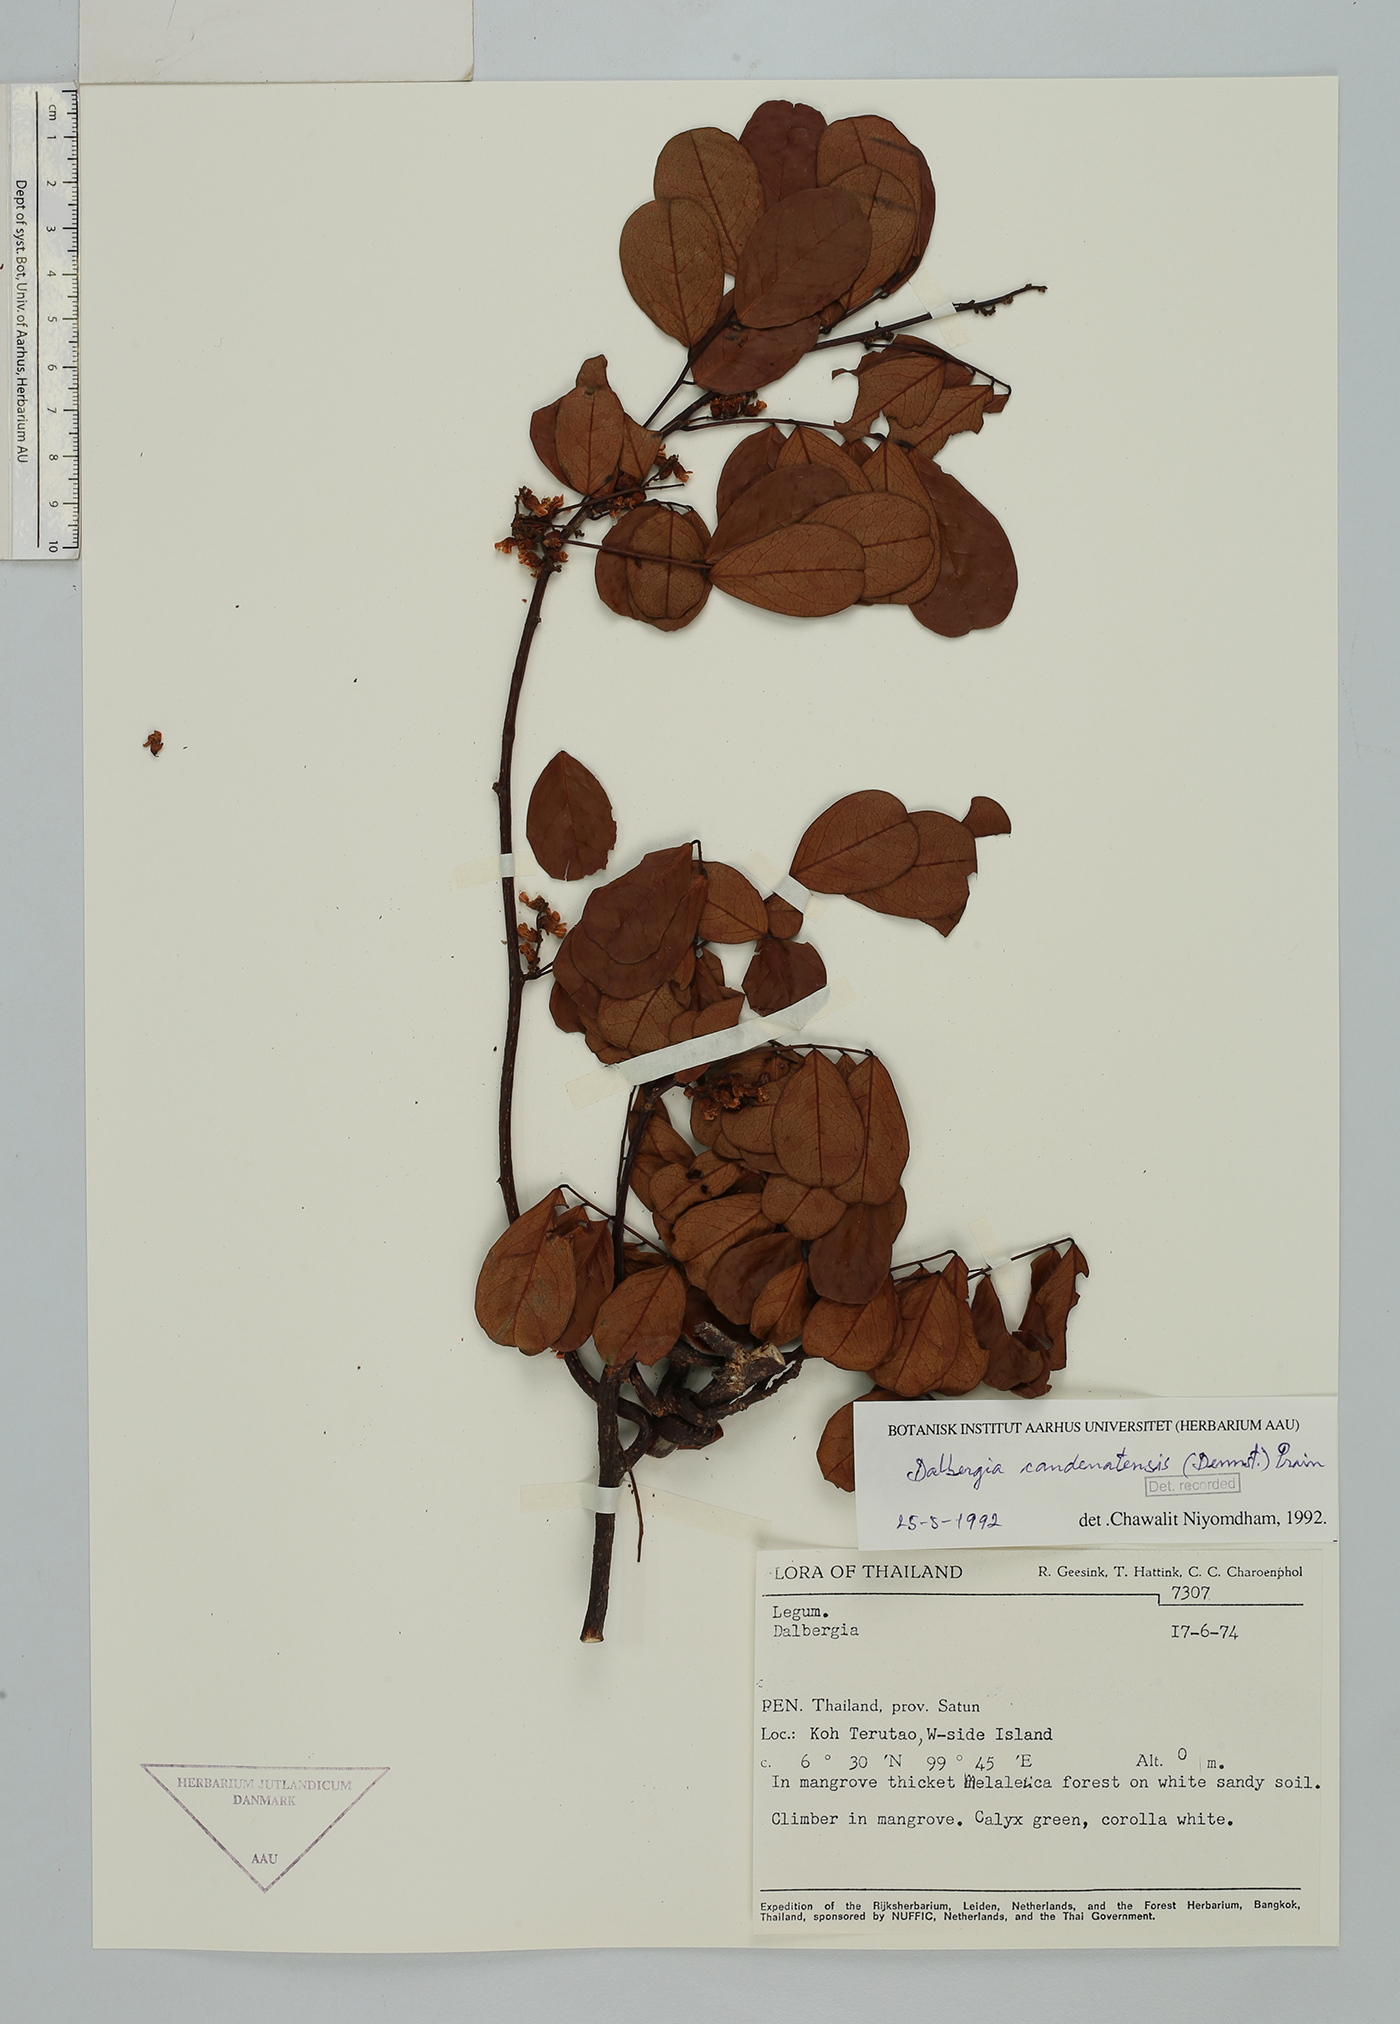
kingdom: Plantae
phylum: Tracheophyta
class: Magnoliopsida
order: Fabales
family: Fabaceae
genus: Dalbergia
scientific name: Dalbergia candenatensis
